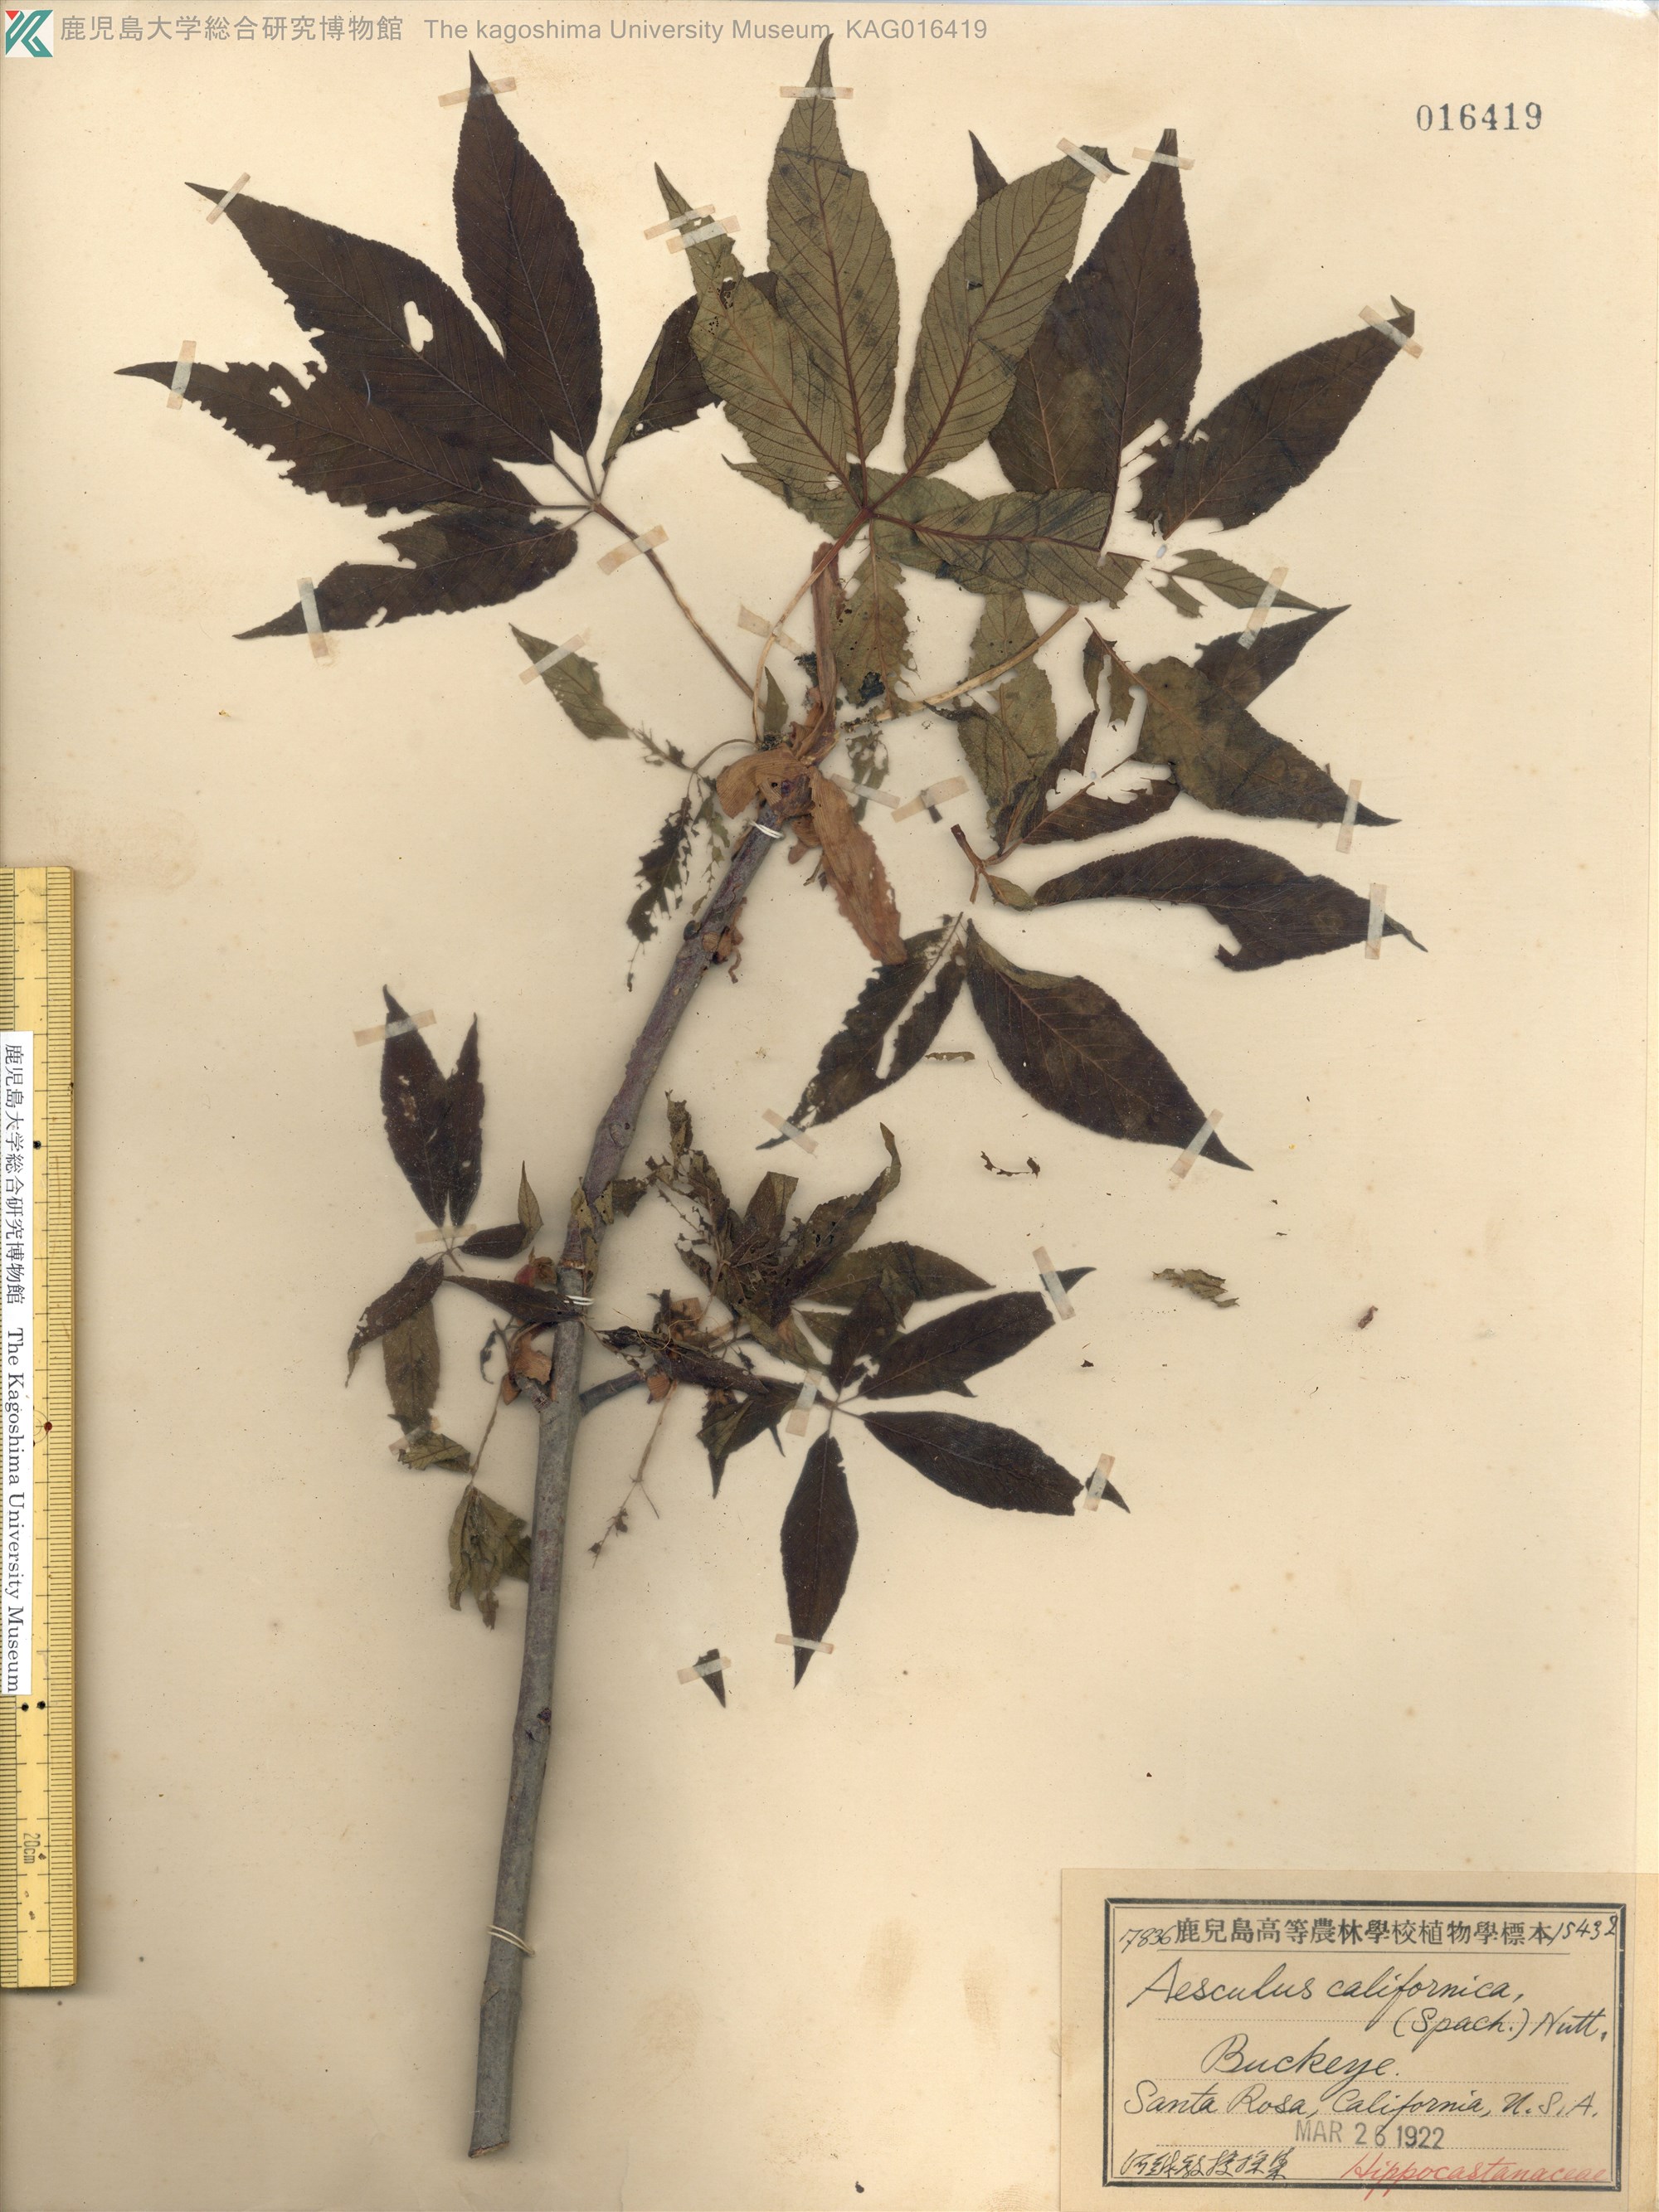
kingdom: Plantae
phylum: Tracheophyta
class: Magnoliopsida
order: Sapindales
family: Sapindaceae
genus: Aesculus
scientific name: Aesculus californica
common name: California buckeye
